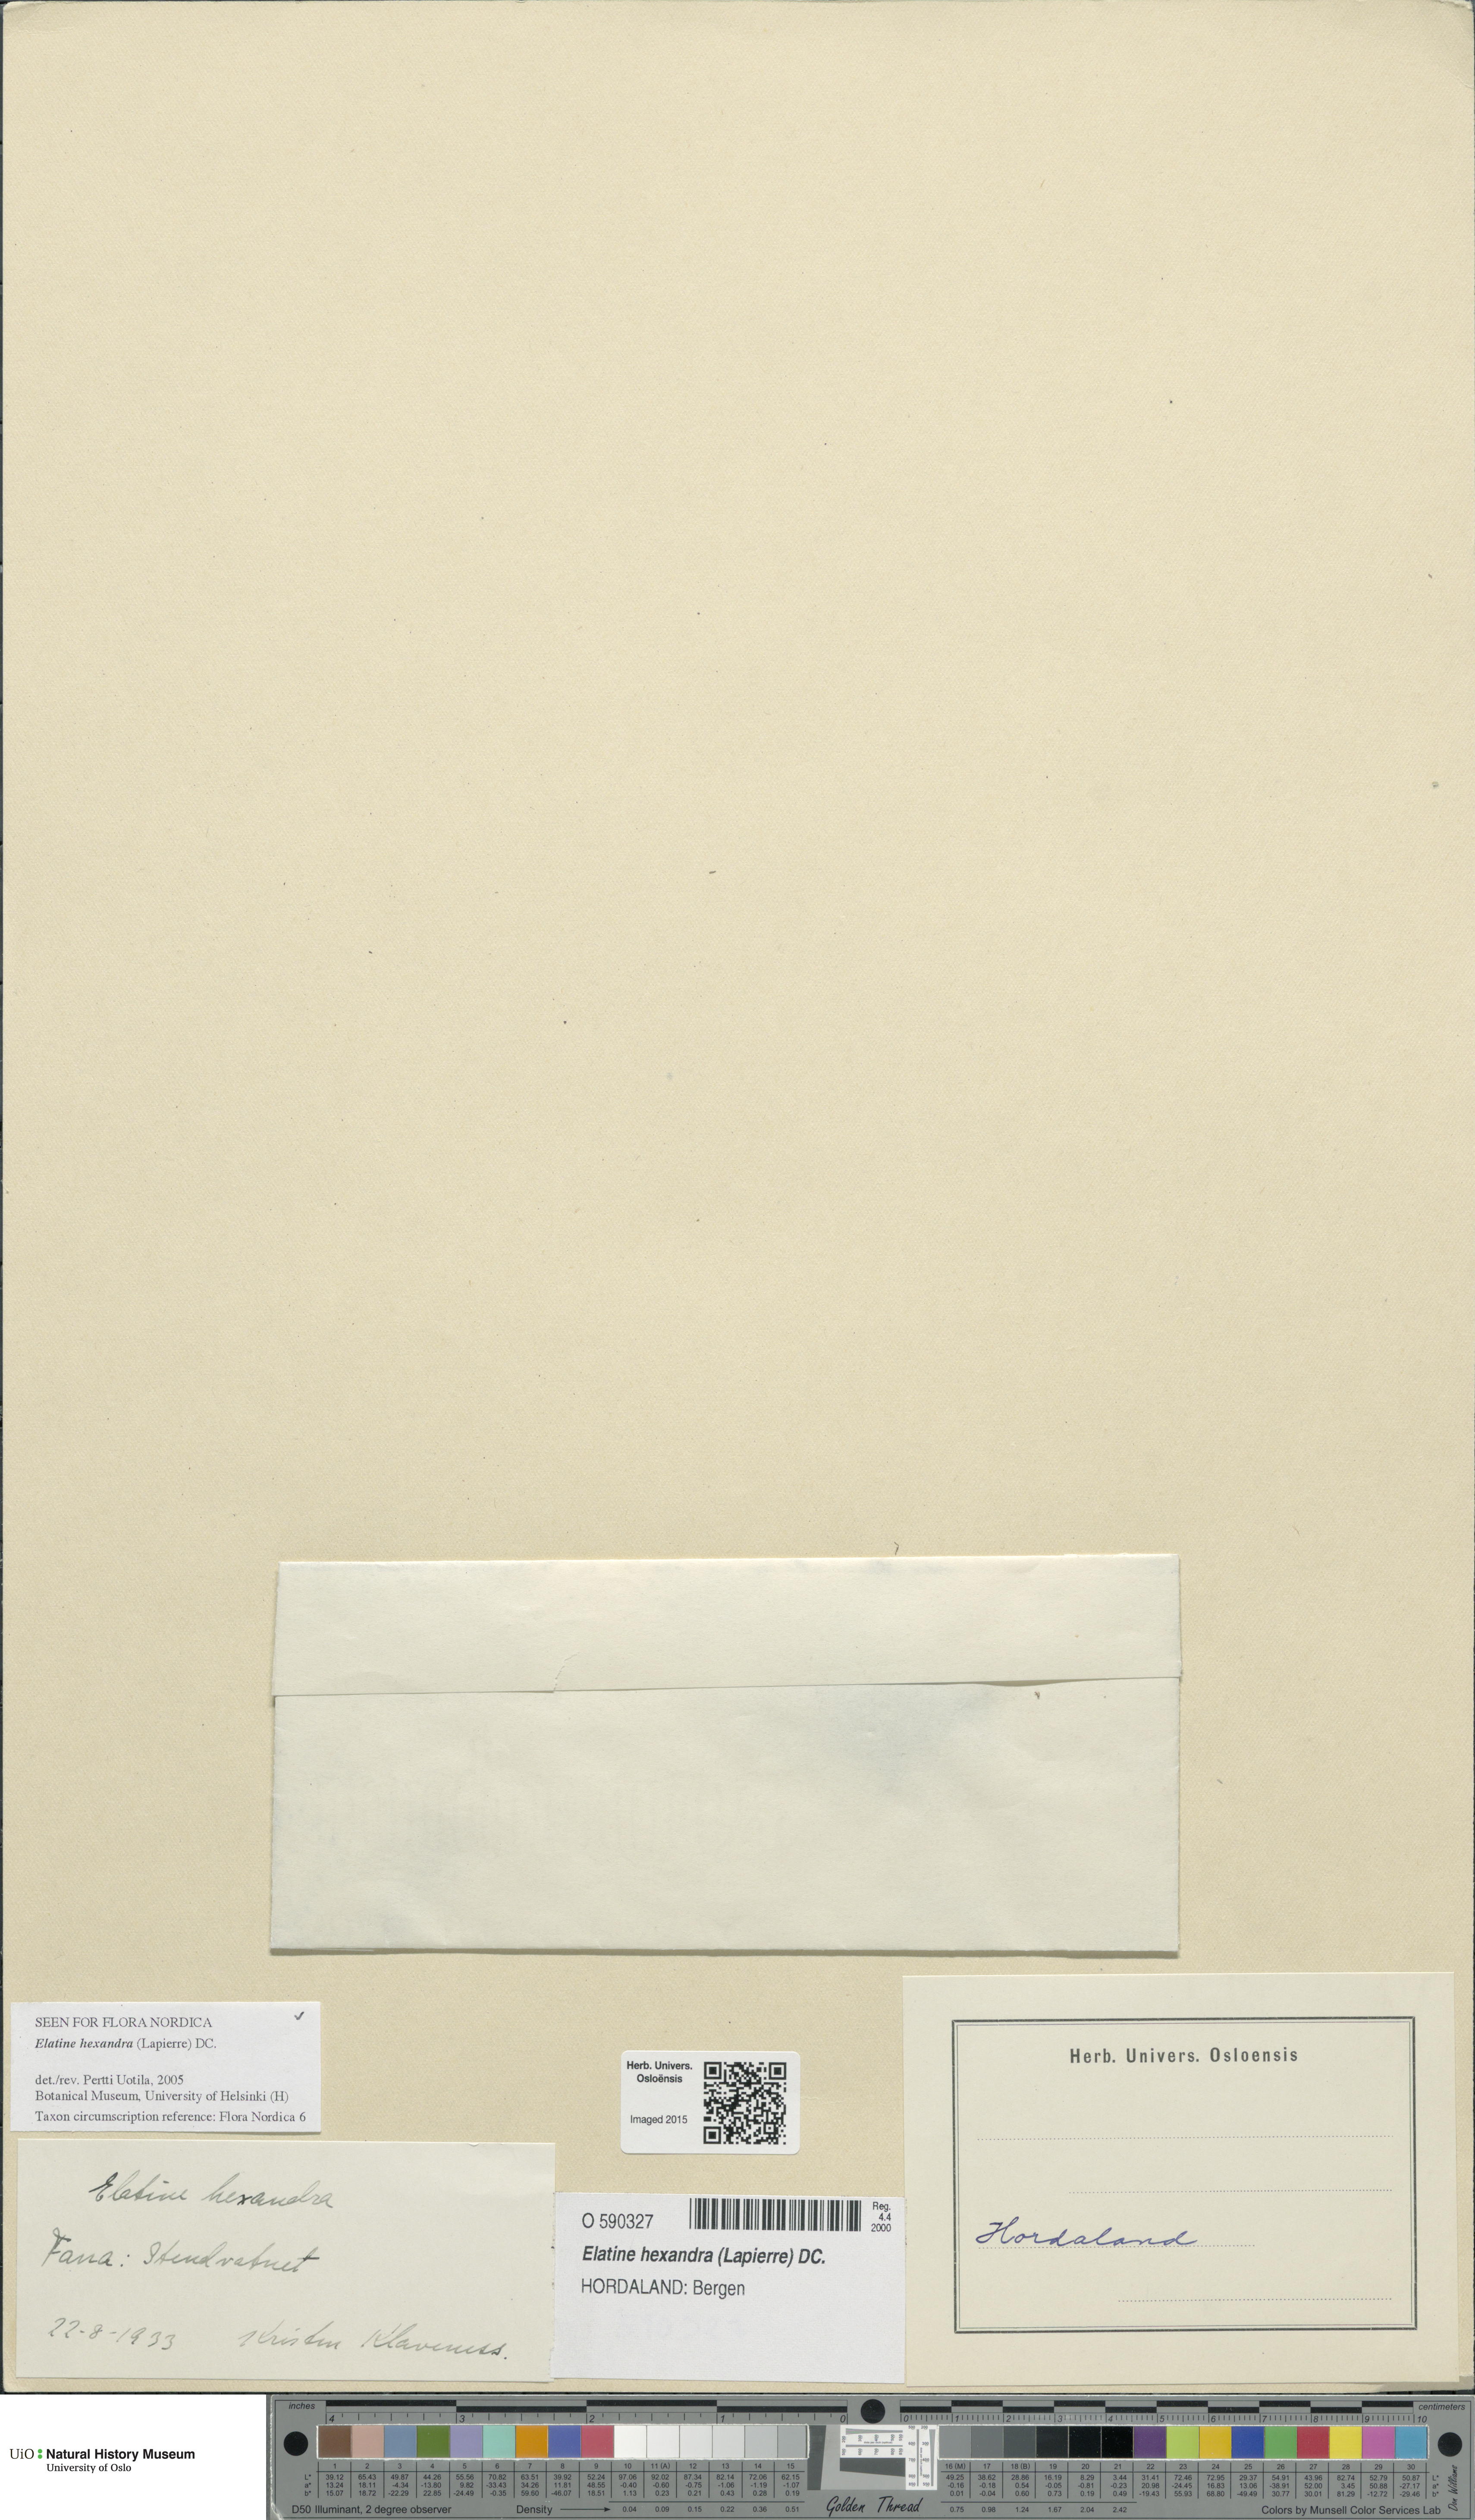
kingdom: Plantae
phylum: Tracheophyta
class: Magnoliopsida
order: Malpighiales
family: Elatinaceae
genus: Elatine
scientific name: Elatine hexandra
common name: Six-stamened waterwort
